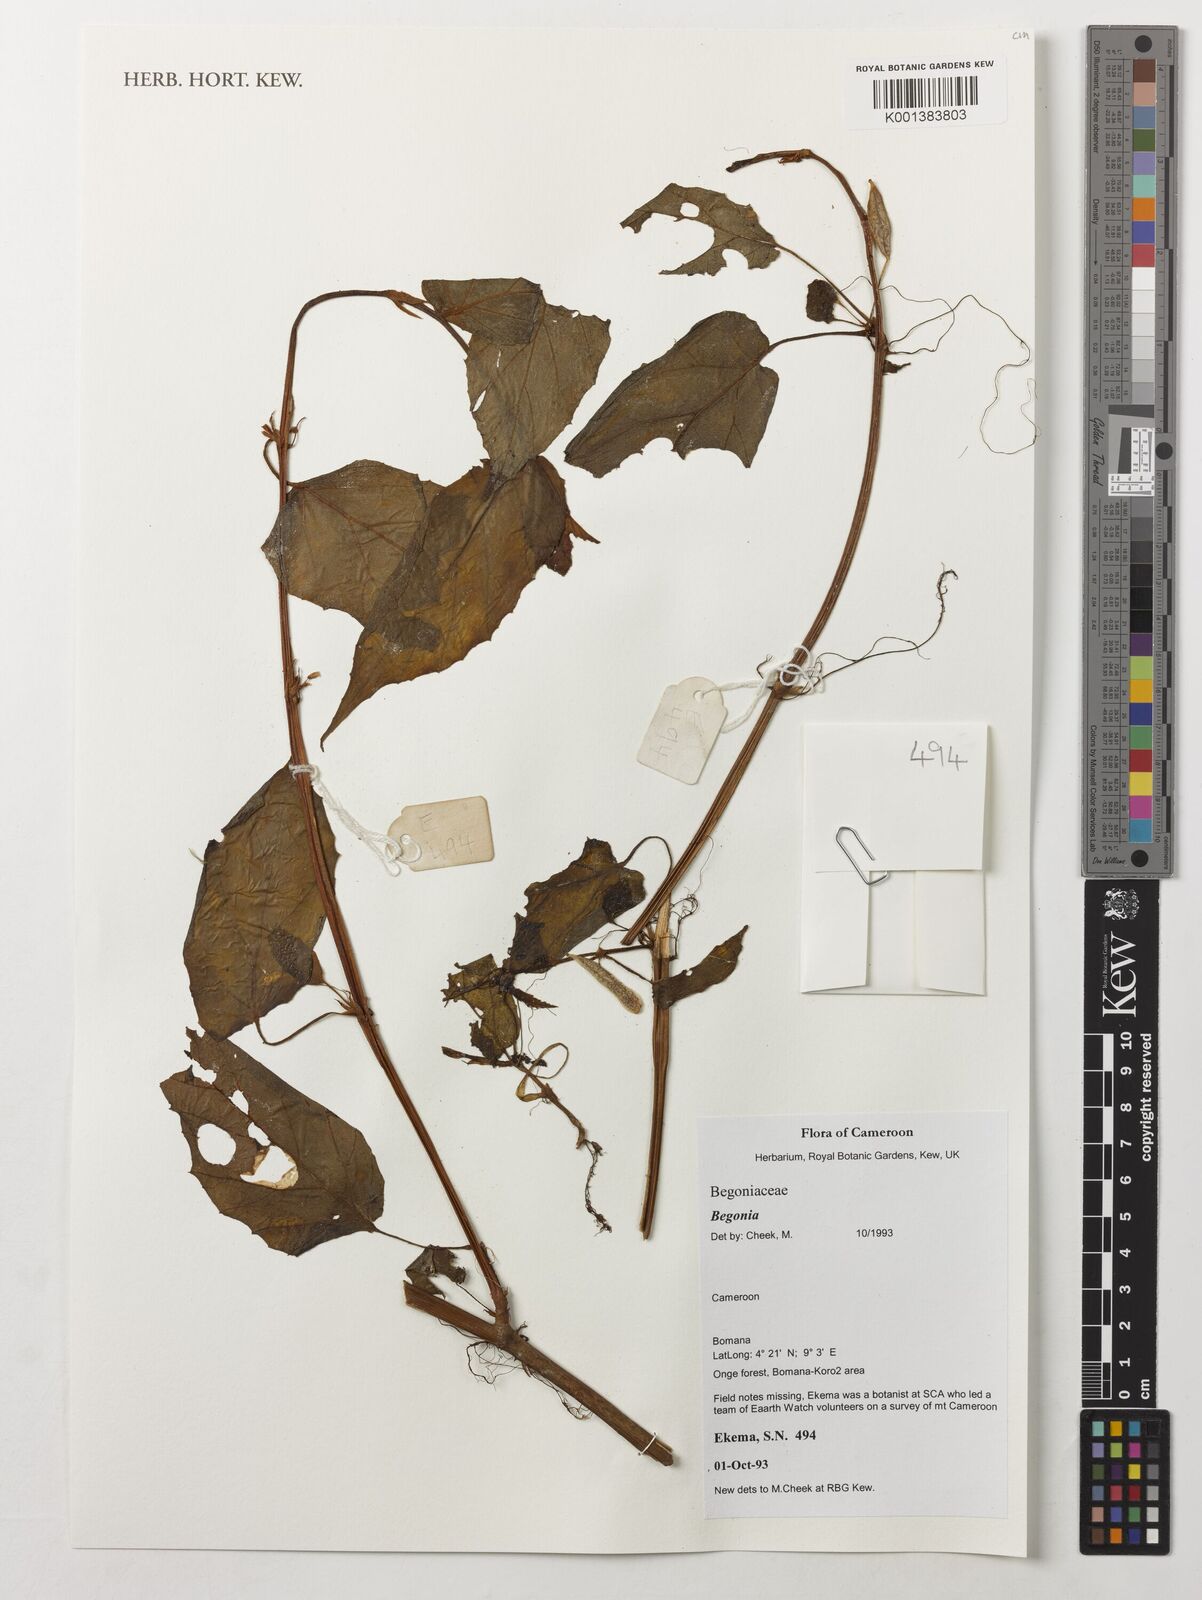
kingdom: Plantae
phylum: Tracheophyta
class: Magnoliopsida
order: Cucurbitales
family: Begoniaceae
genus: Begonia
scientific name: Begonia
